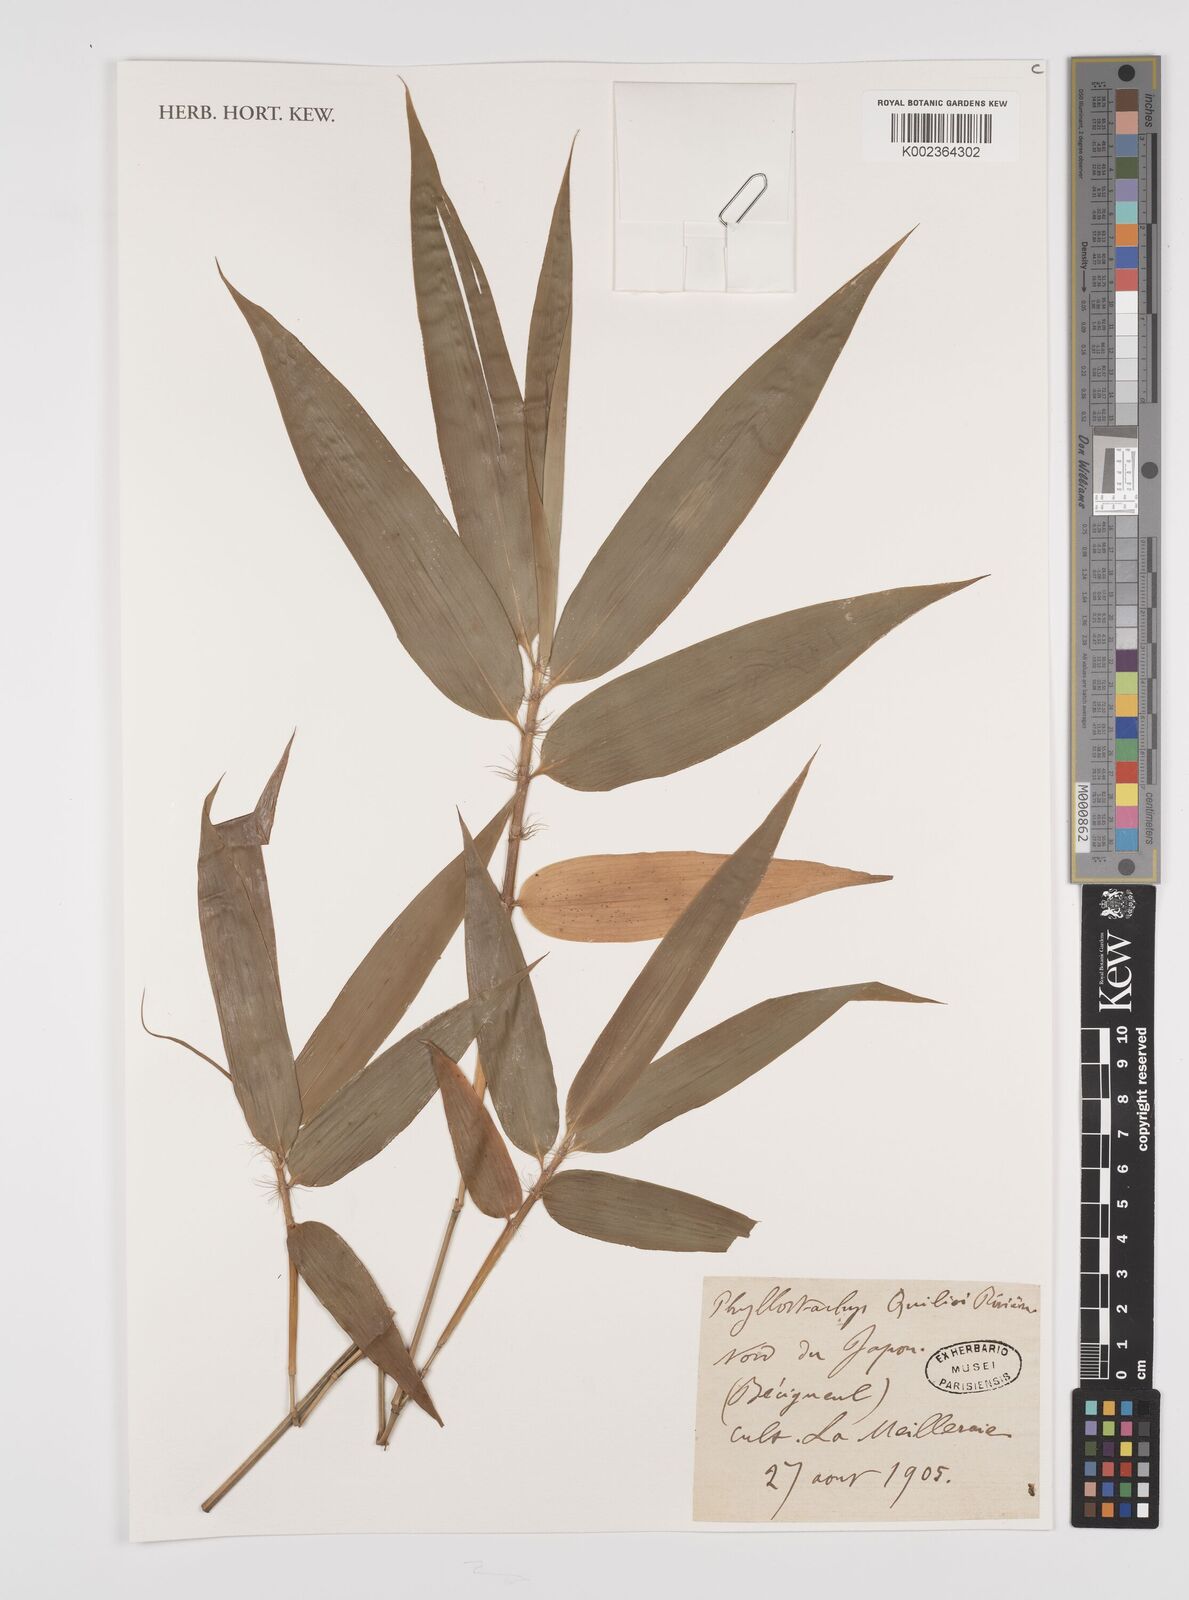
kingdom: Plantae
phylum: Tracheophyta
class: Liliopsida
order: Poales
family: Poaceae
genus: Phyllostachys
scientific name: Phyllostachys
